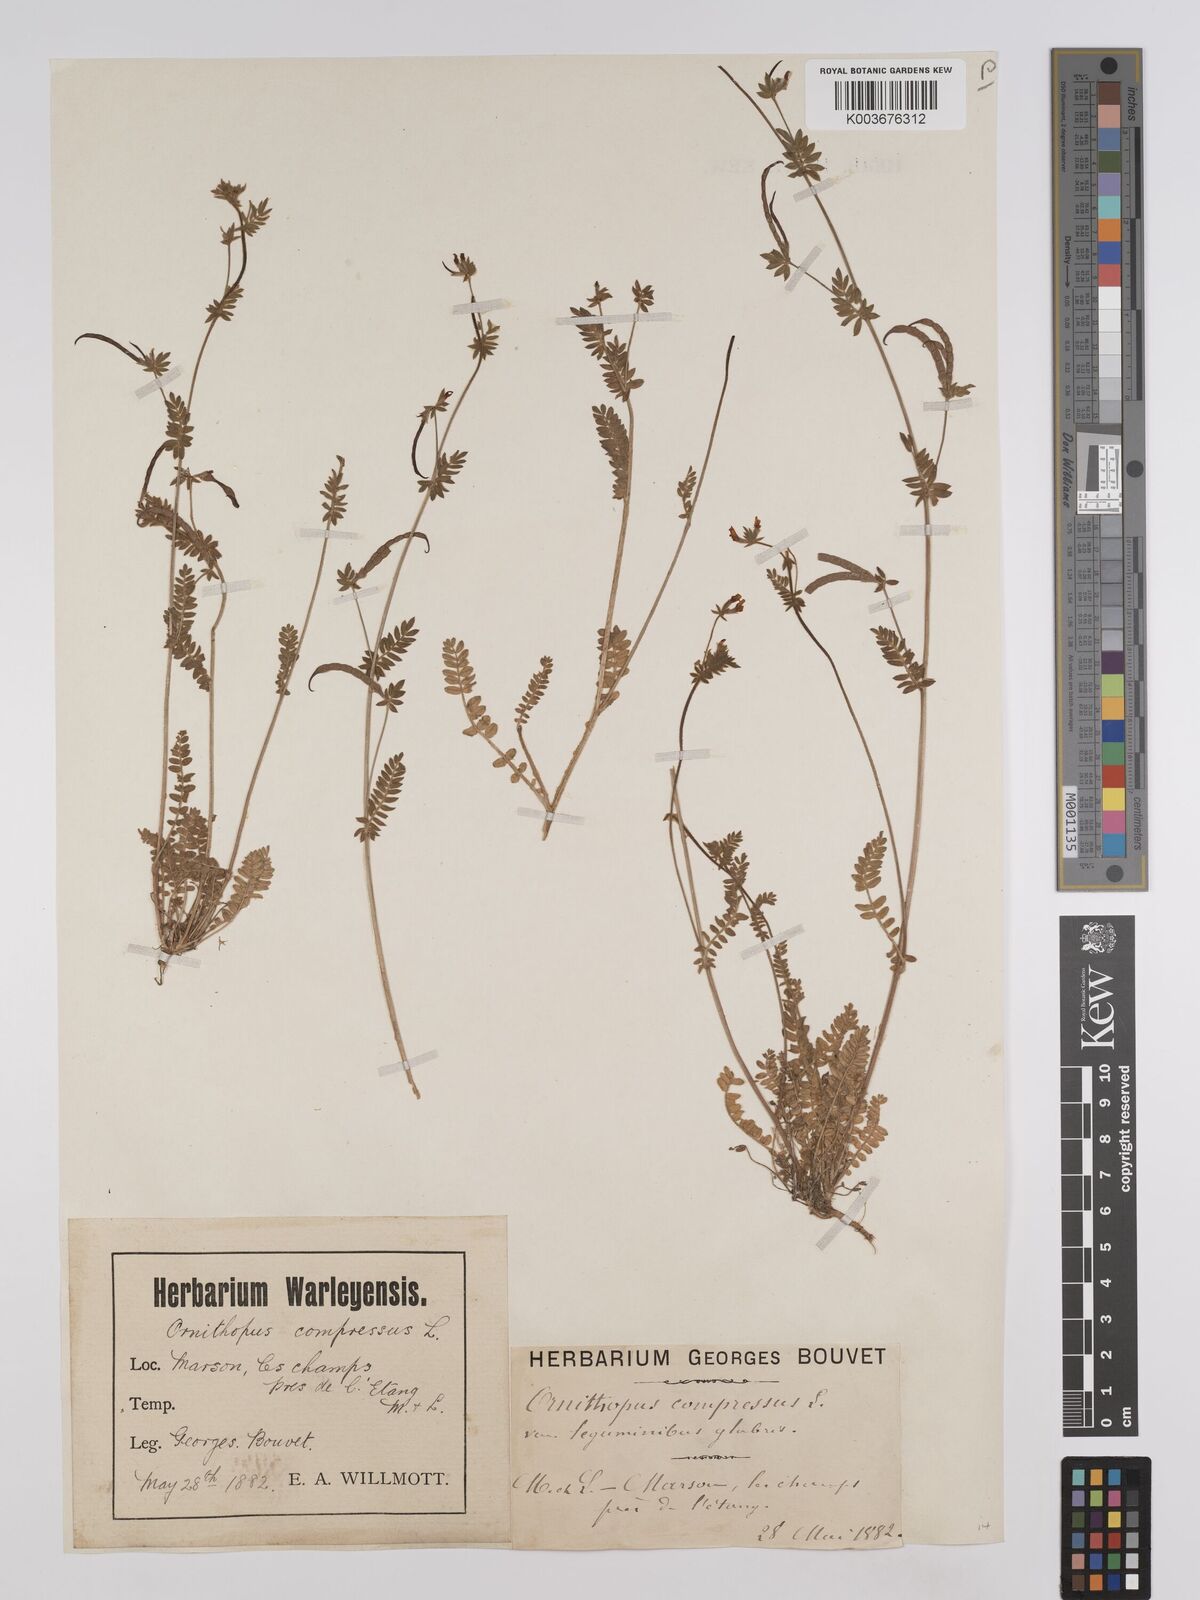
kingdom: Plantae
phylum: Tracheophyta
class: Magnoliopsida
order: Fabales
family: Fabaceae
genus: Ornithopus
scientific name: Ornithopus compressus
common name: Yellow serradella
